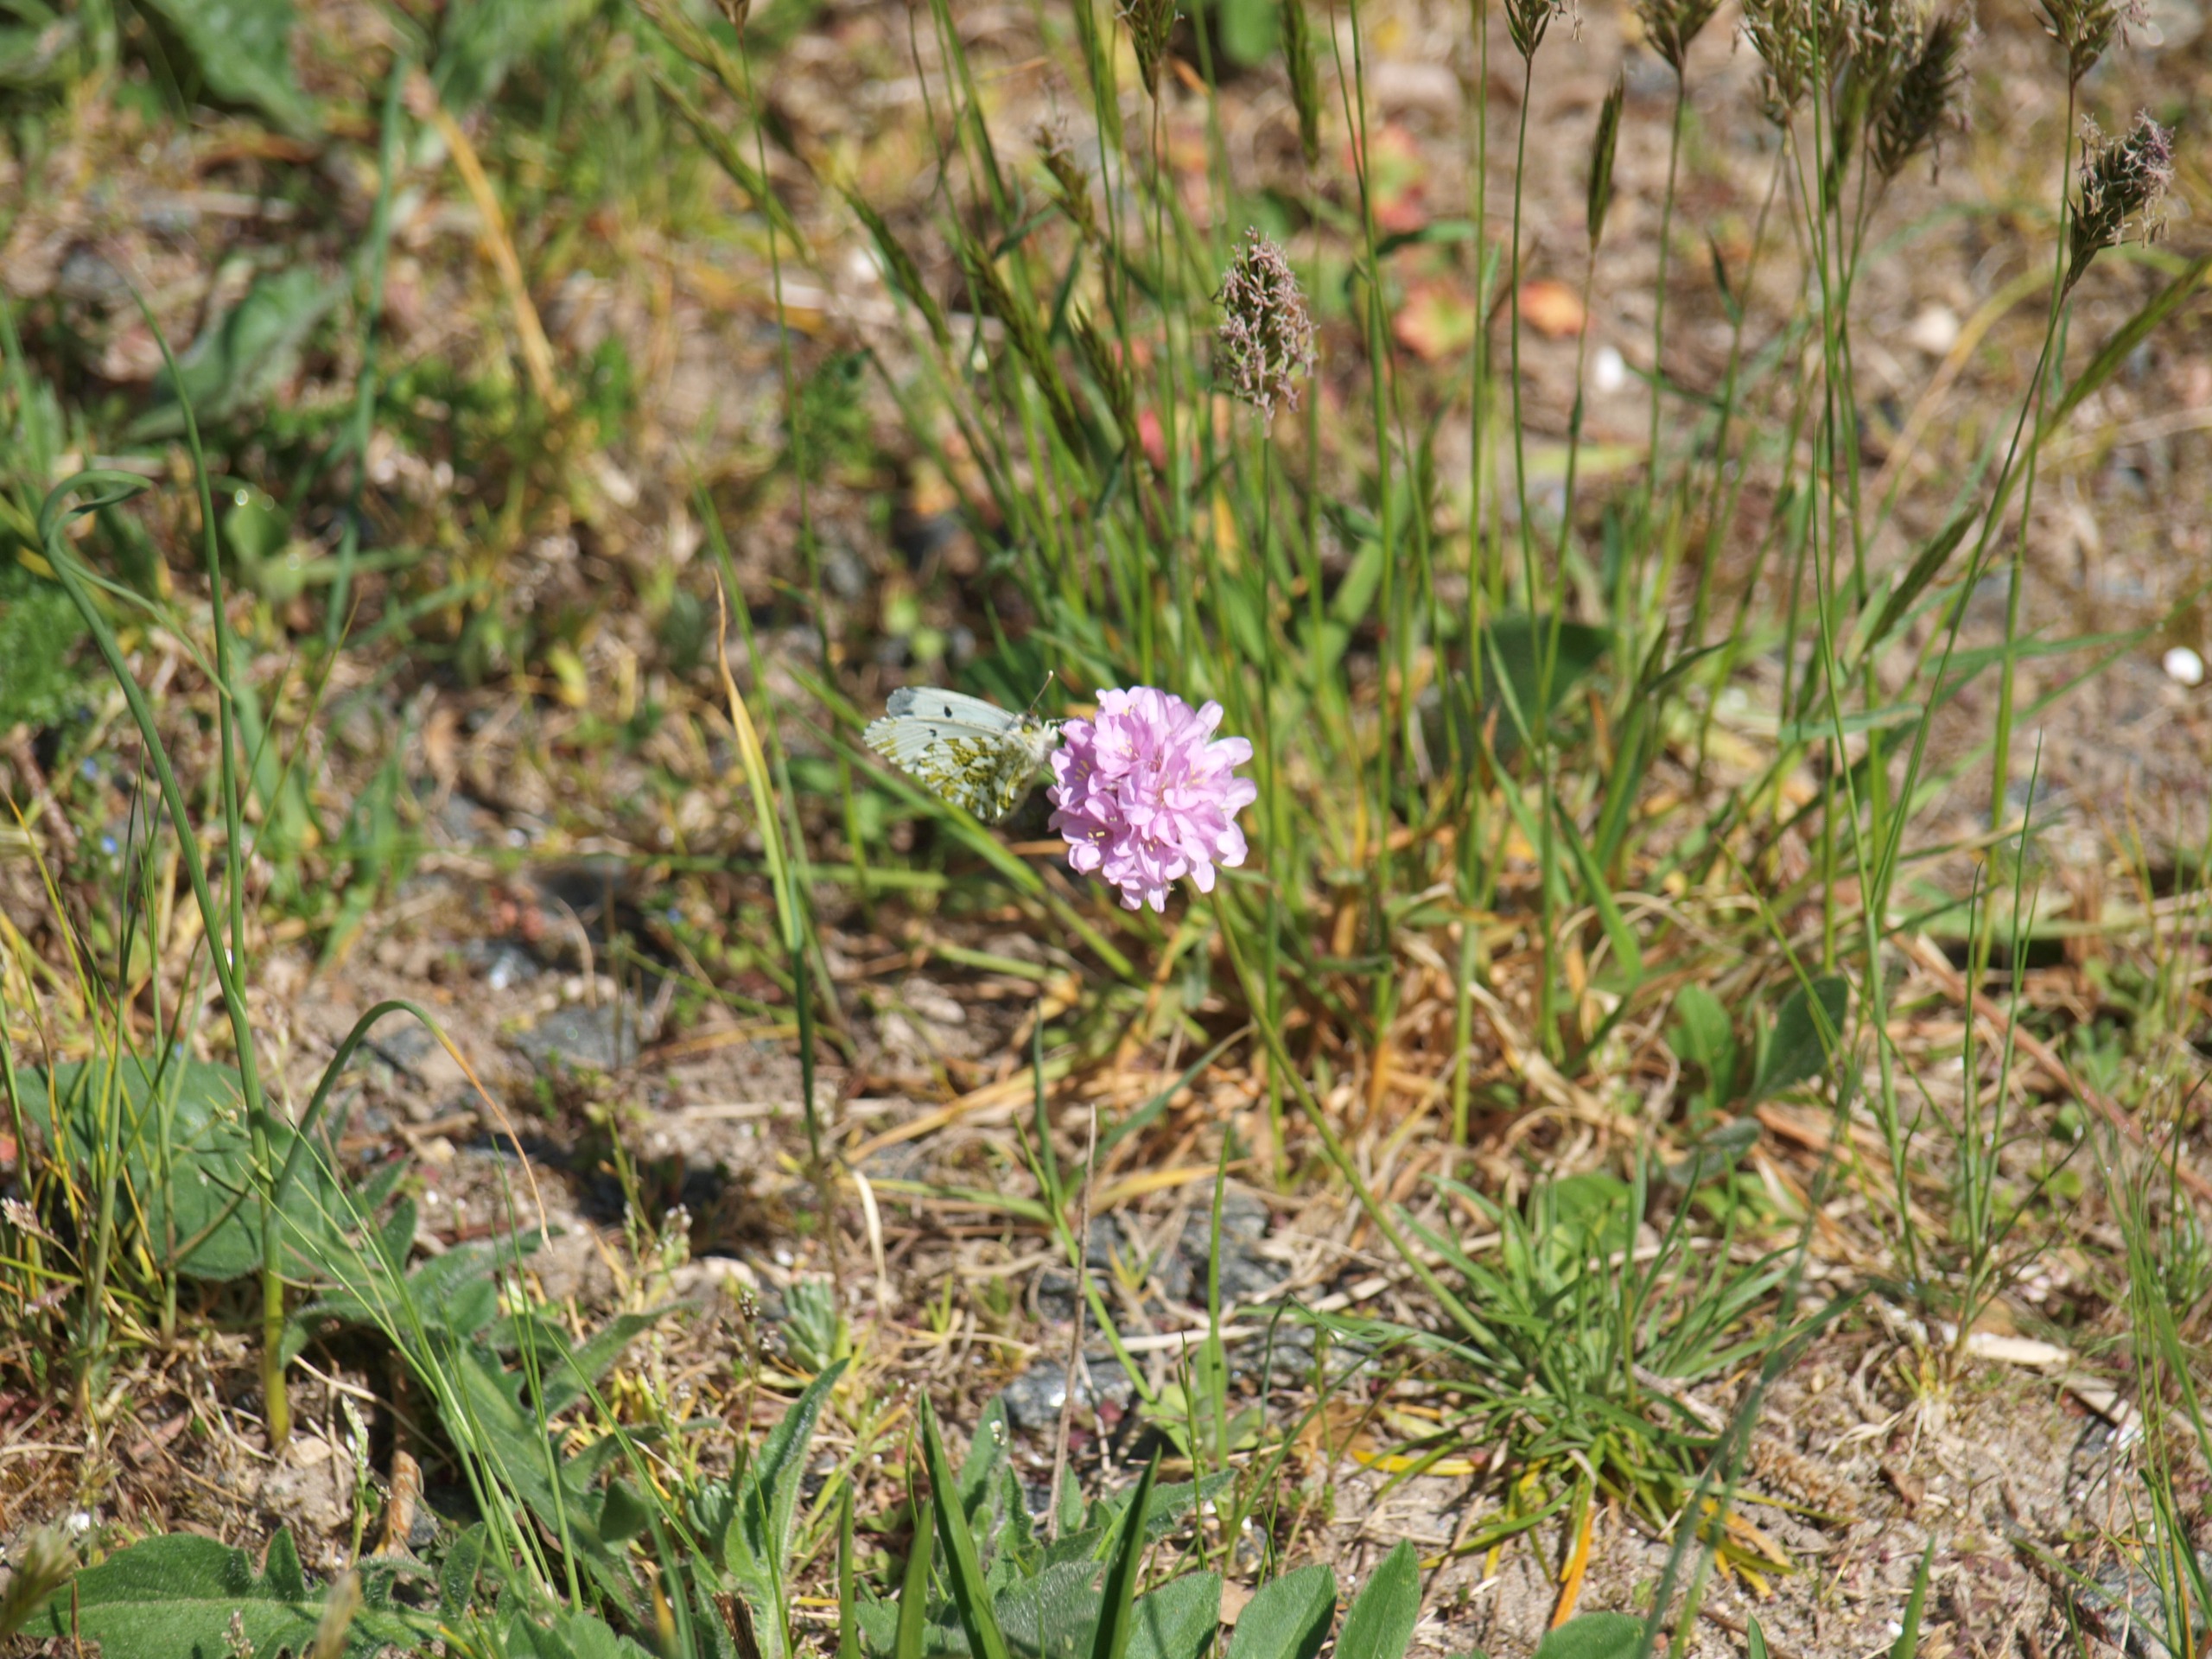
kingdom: Animalia
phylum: Arthropoda
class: Insecta
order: Lepidoptera
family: Pieridae
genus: Anthocharis
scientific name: Anthocharis cardamines
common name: Aurora
